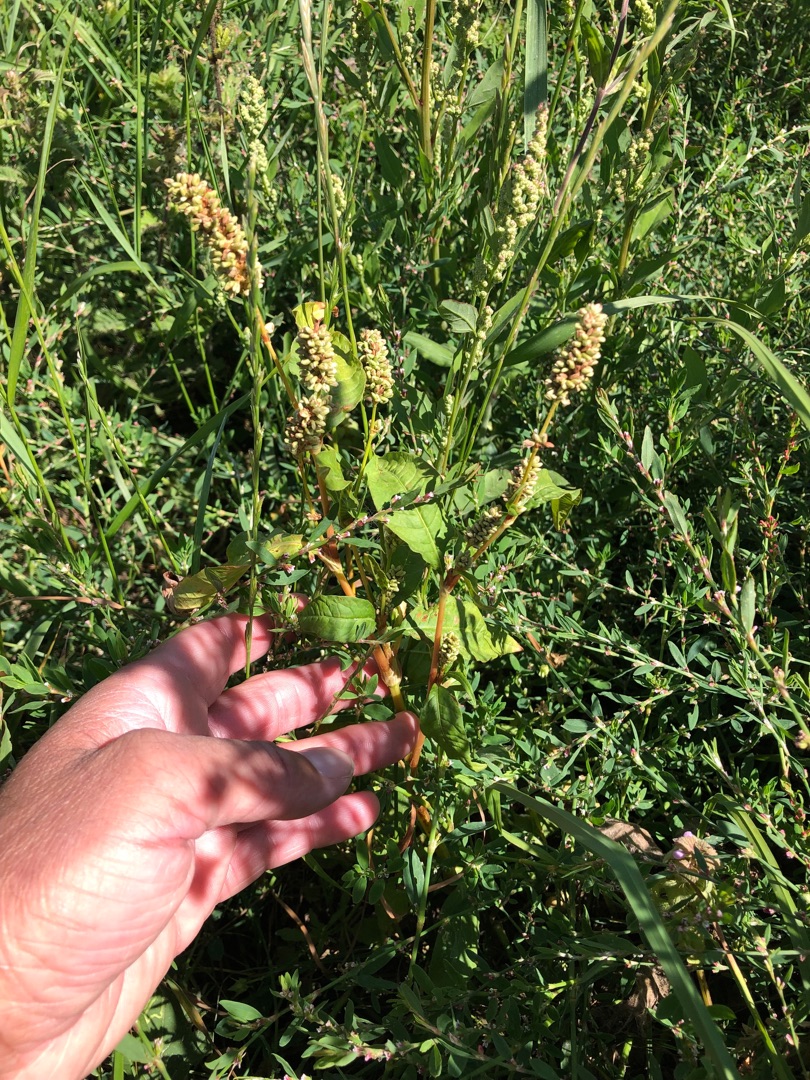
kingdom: Plantae
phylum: Tracheophyta
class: Magnoliopsida
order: Caryophyllales
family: Polygonaceae
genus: Persicaria
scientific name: Persicaria lapathifolia
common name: Knudet pileurt
